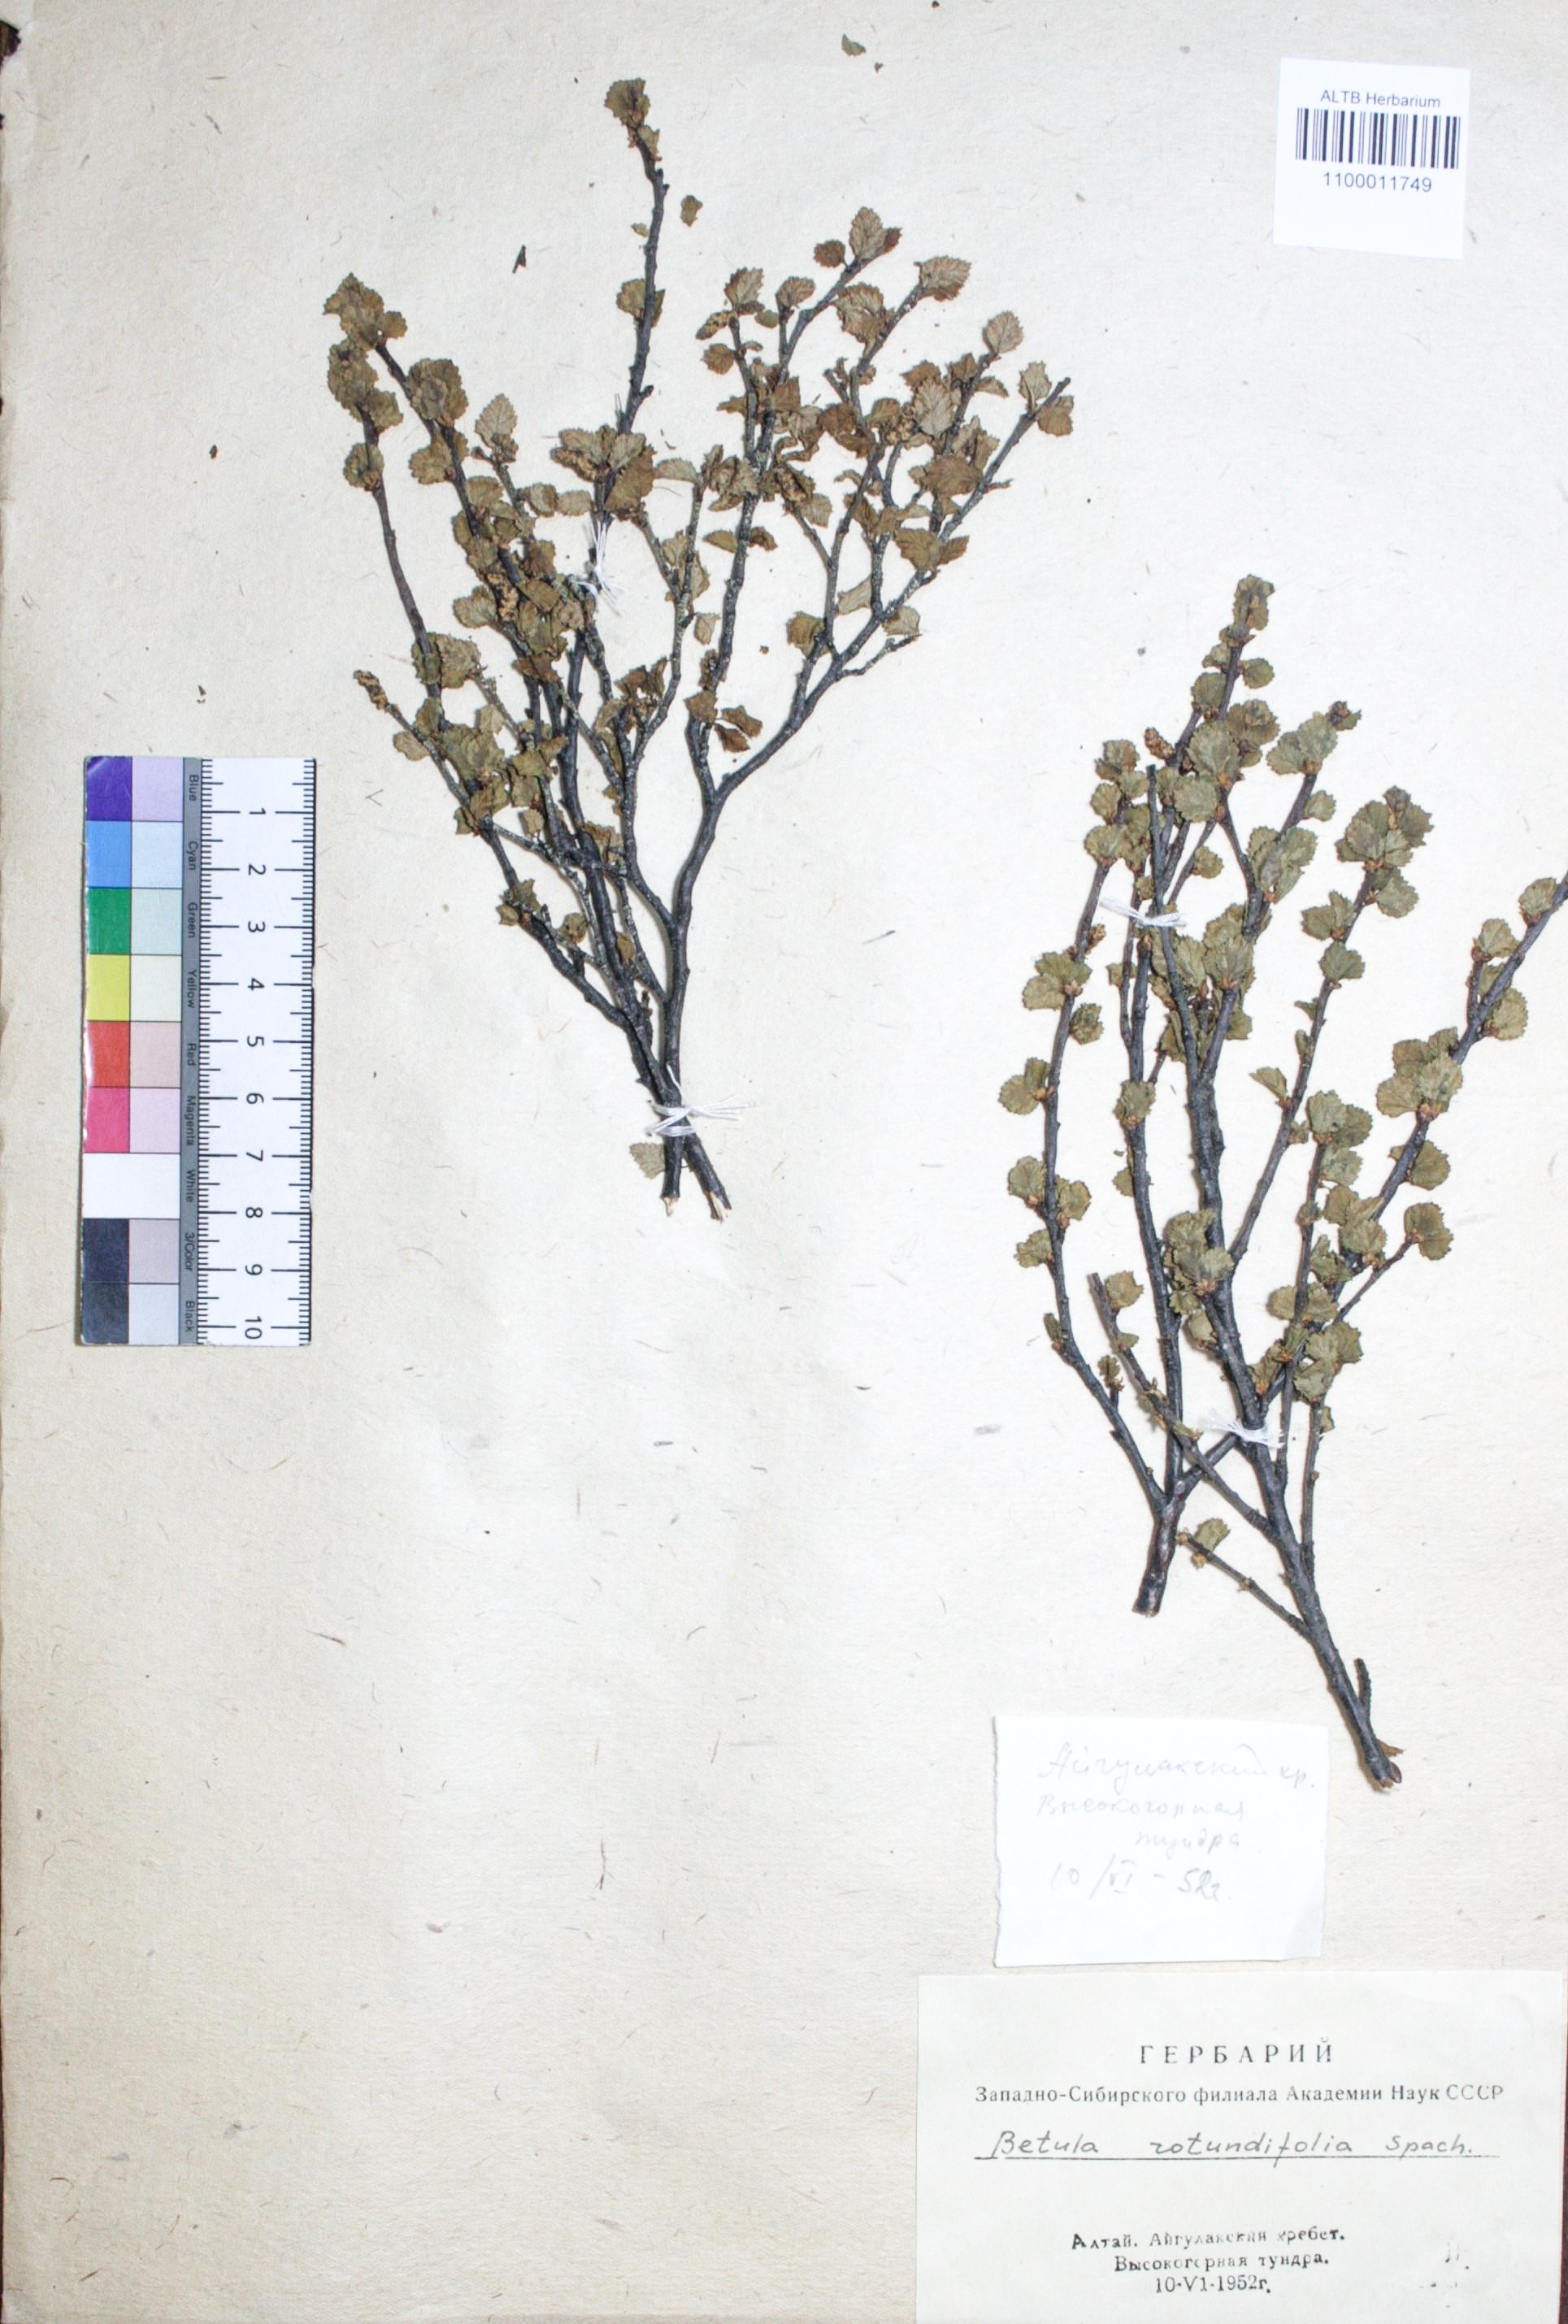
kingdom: Plantae
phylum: Tracheophyta
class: Magnoliopsida
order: Fagales
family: Betulaceae
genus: Betula
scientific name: Betula glandulosa
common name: Dwarf birch
